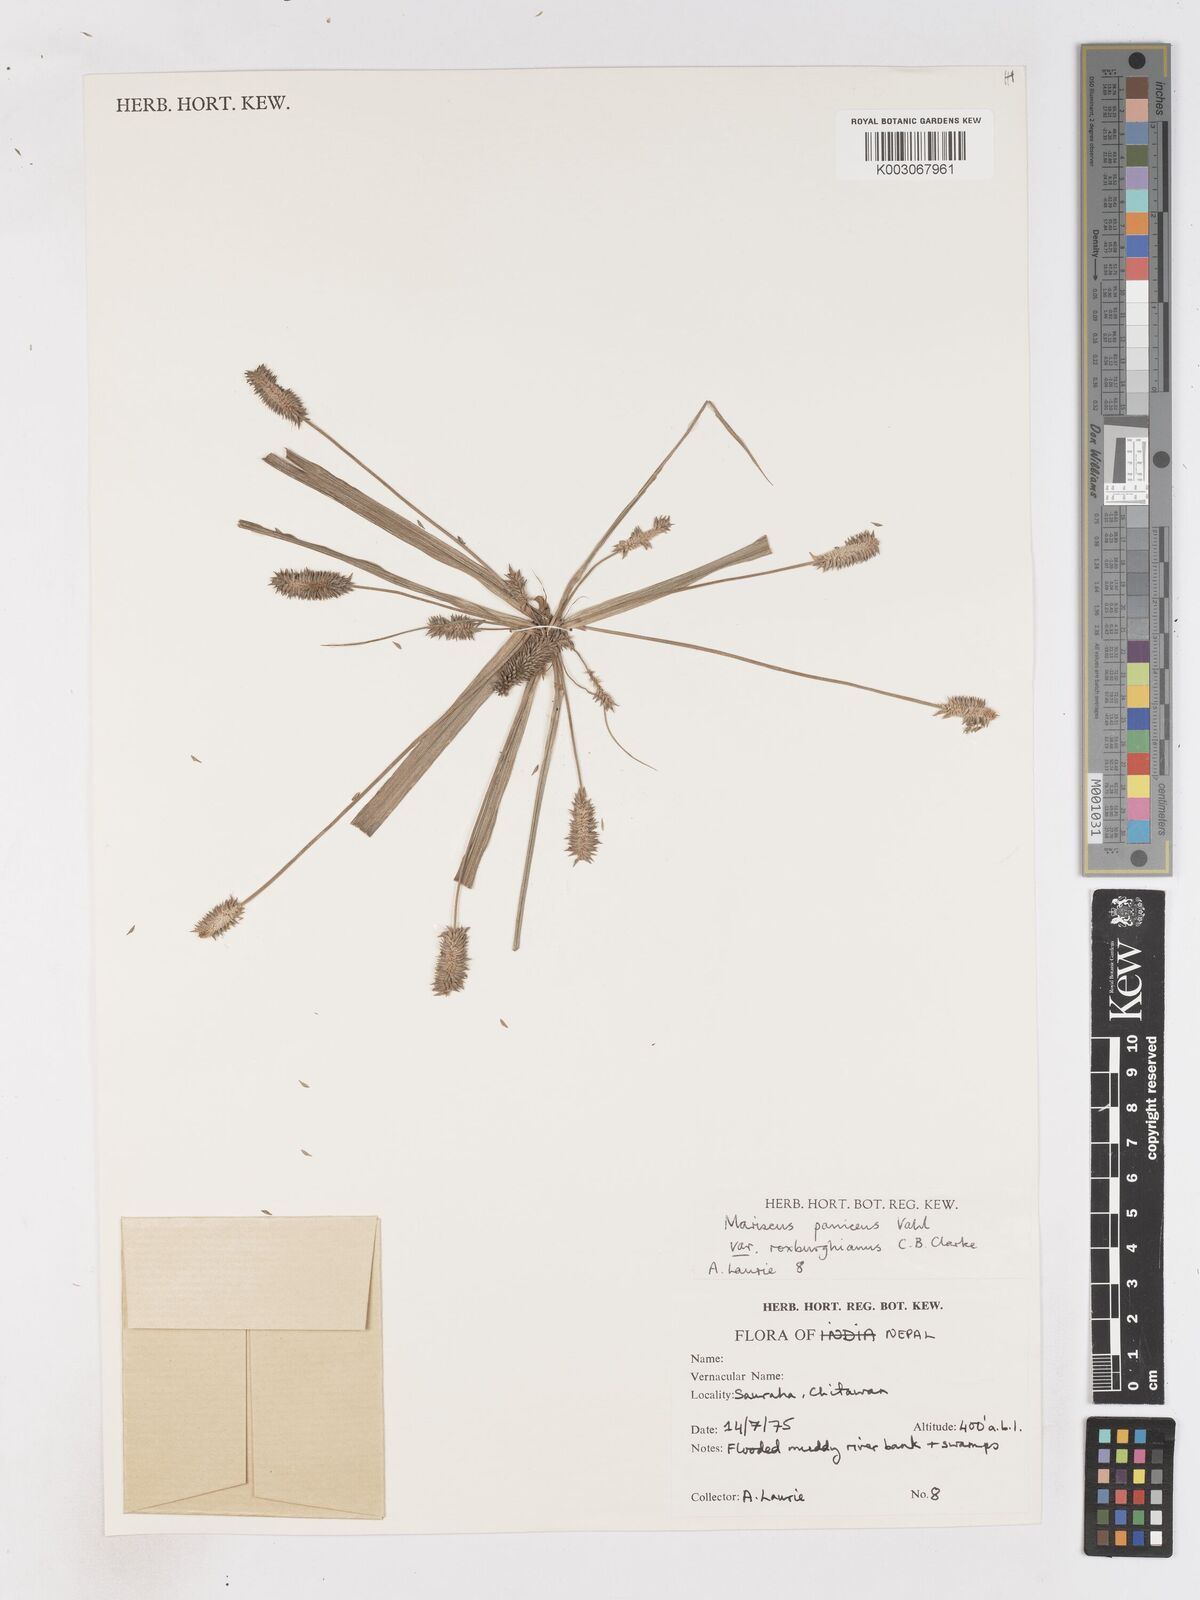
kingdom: Plantae
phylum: Tracheophyta
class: Liliopsida
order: Poales
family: Cyperaceae
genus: Cyperus
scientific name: Cyperus paniceus
